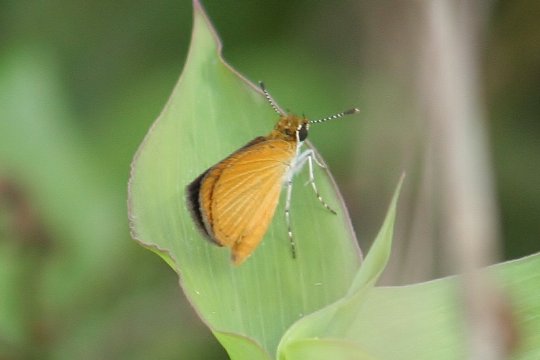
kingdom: Animalia
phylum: Arthropoda
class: Insecta
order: Lepidoptera
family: Hesperiidae
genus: Ancyloxypha
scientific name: Ancyloxypha numitor
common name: Least Skipper
